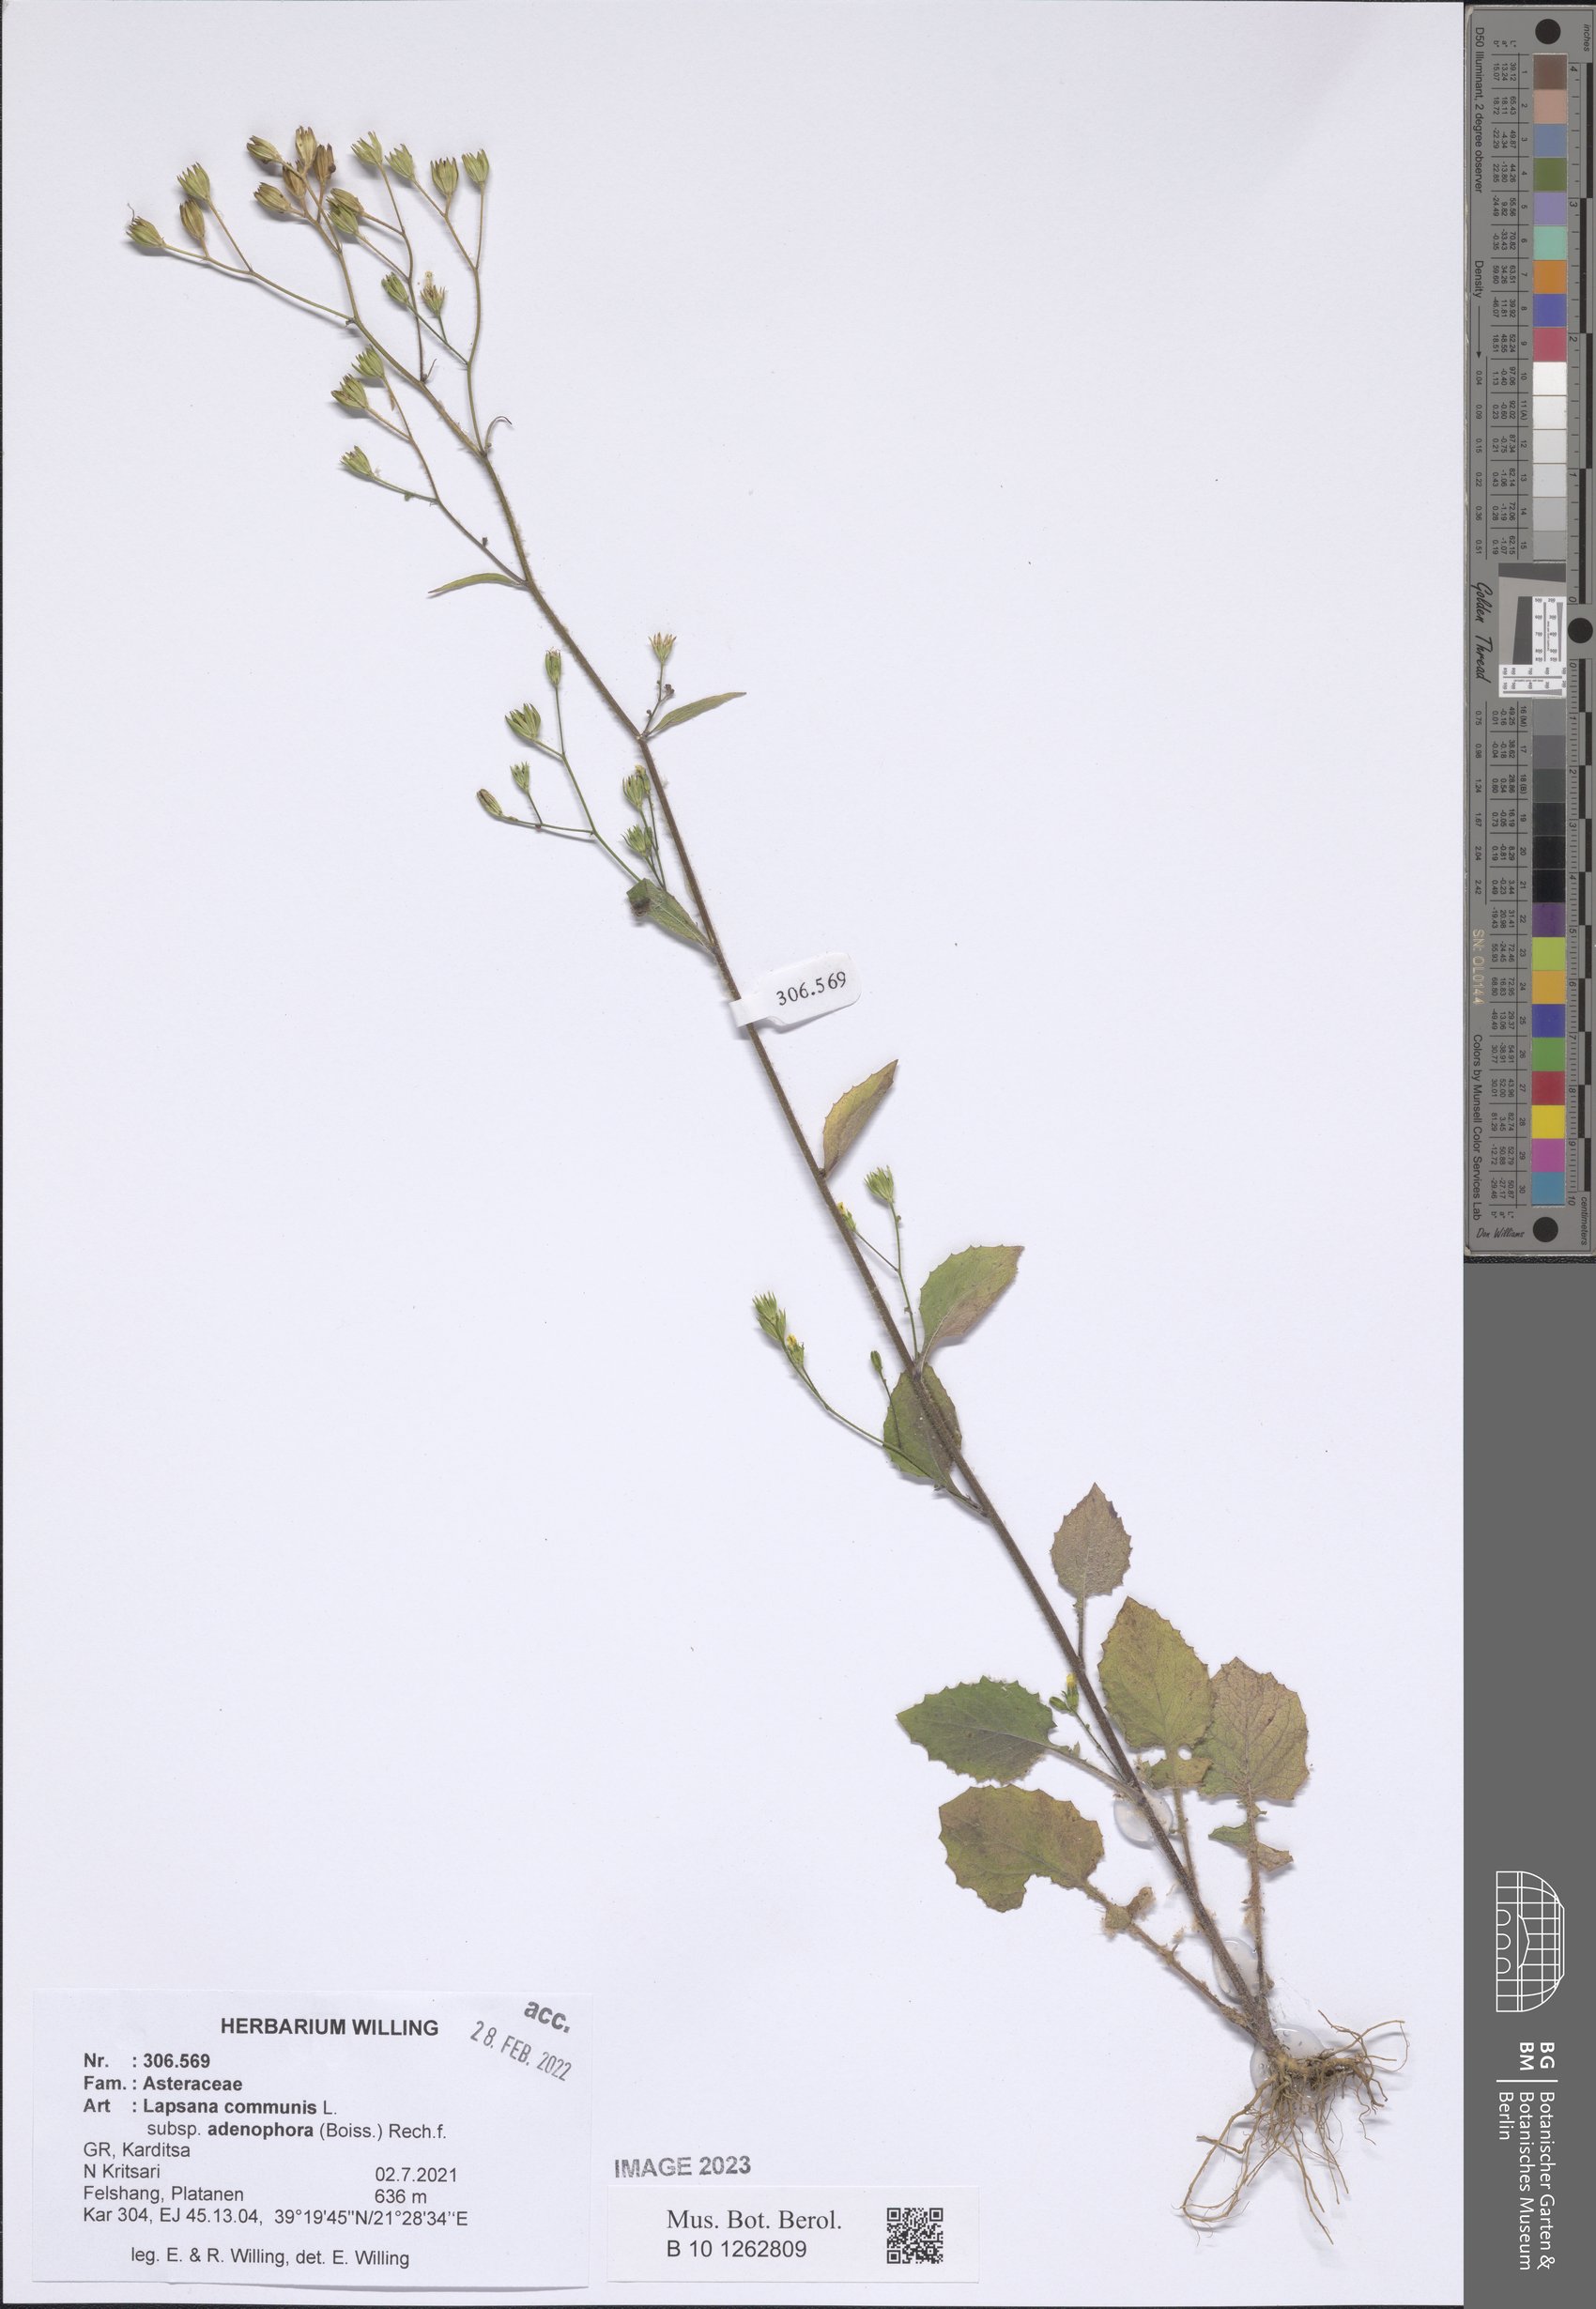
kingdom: Plantae
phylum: Tracheophyta
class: Magnoliopsida
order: Asterales
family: Asteraceae
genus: Lapsana
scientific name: Lapsana communis
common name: Nipplewort
